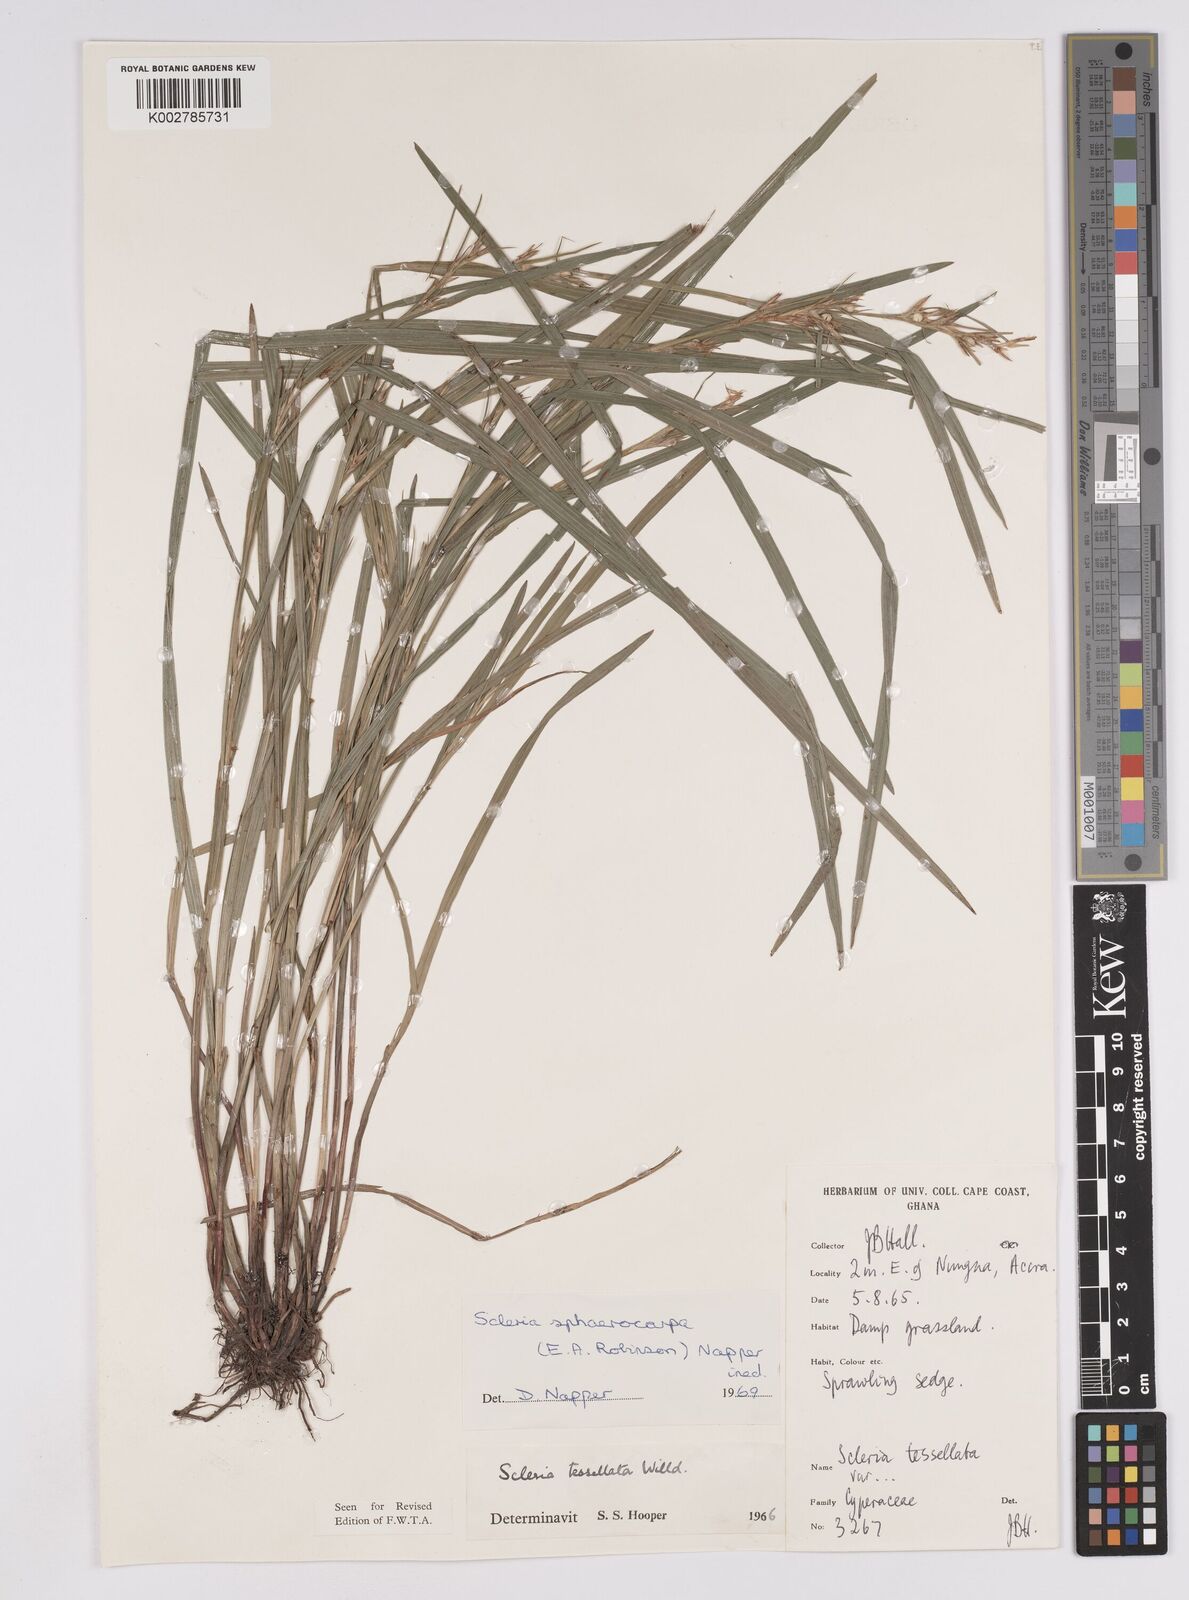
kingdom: Plantae
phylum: Tracheophyta
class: Liliopsida
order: Poales
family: Cyperaceae
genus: Scleria
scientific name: Scleria tessellata
